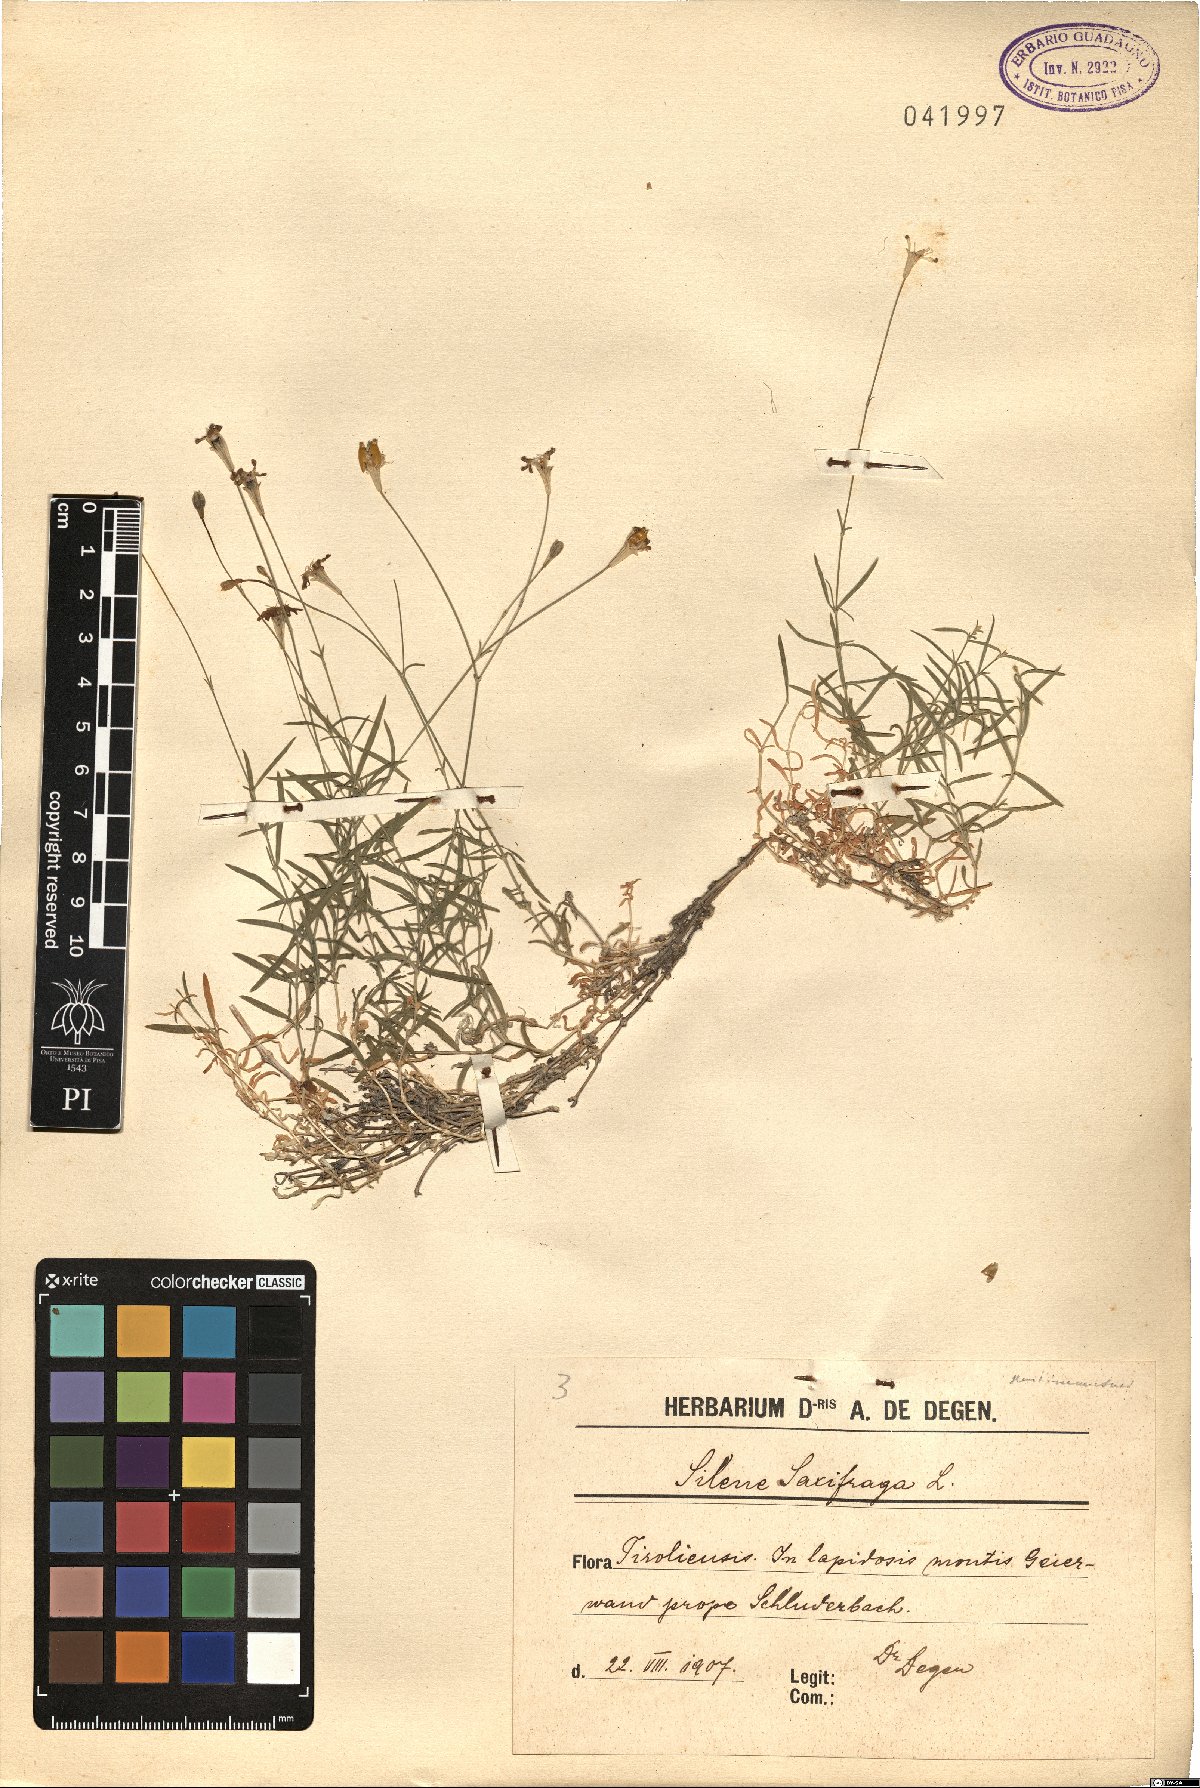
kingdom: Plantae
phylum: Tracheophyta
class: Magnoliopsida
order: Caryophyllales
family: Caryophyllaceae
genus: Silene
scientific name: Silene saxifraga
